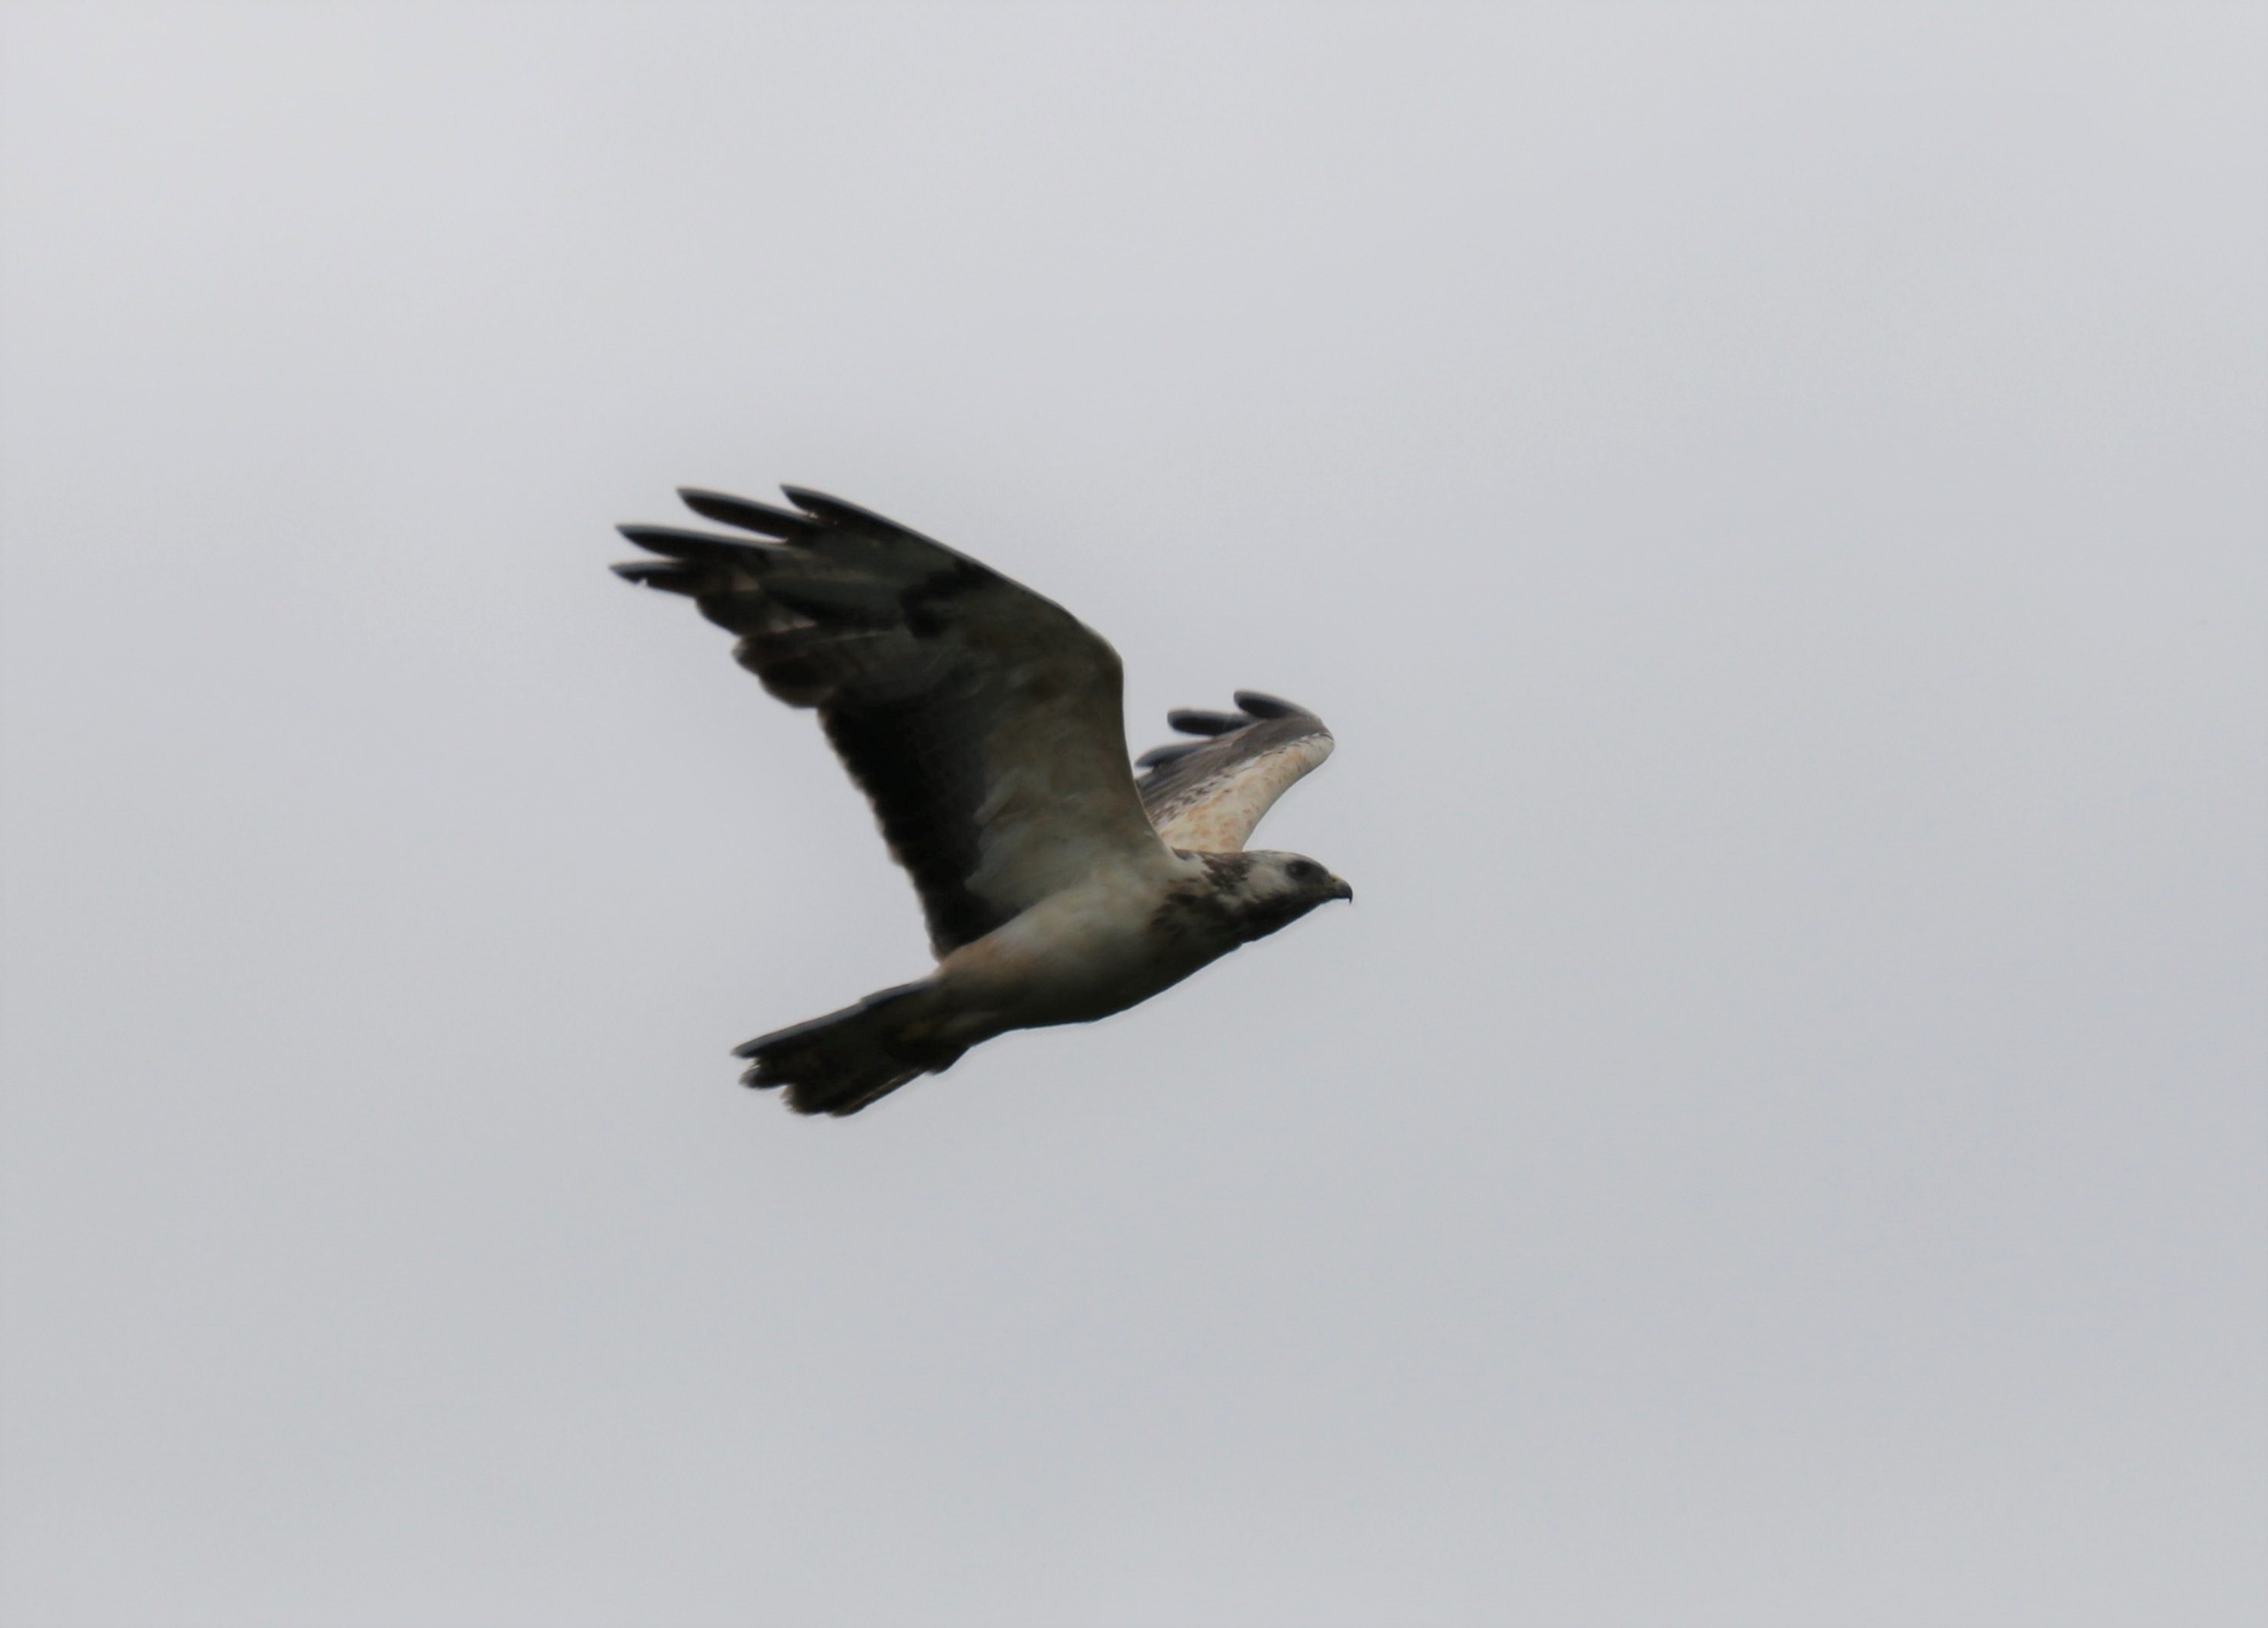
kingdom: Animalia
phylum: Chordata
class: Aves
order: Accipitriformes
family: Accipitridae
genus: Buteo
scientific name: Buteo buteo
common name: Musvåge
